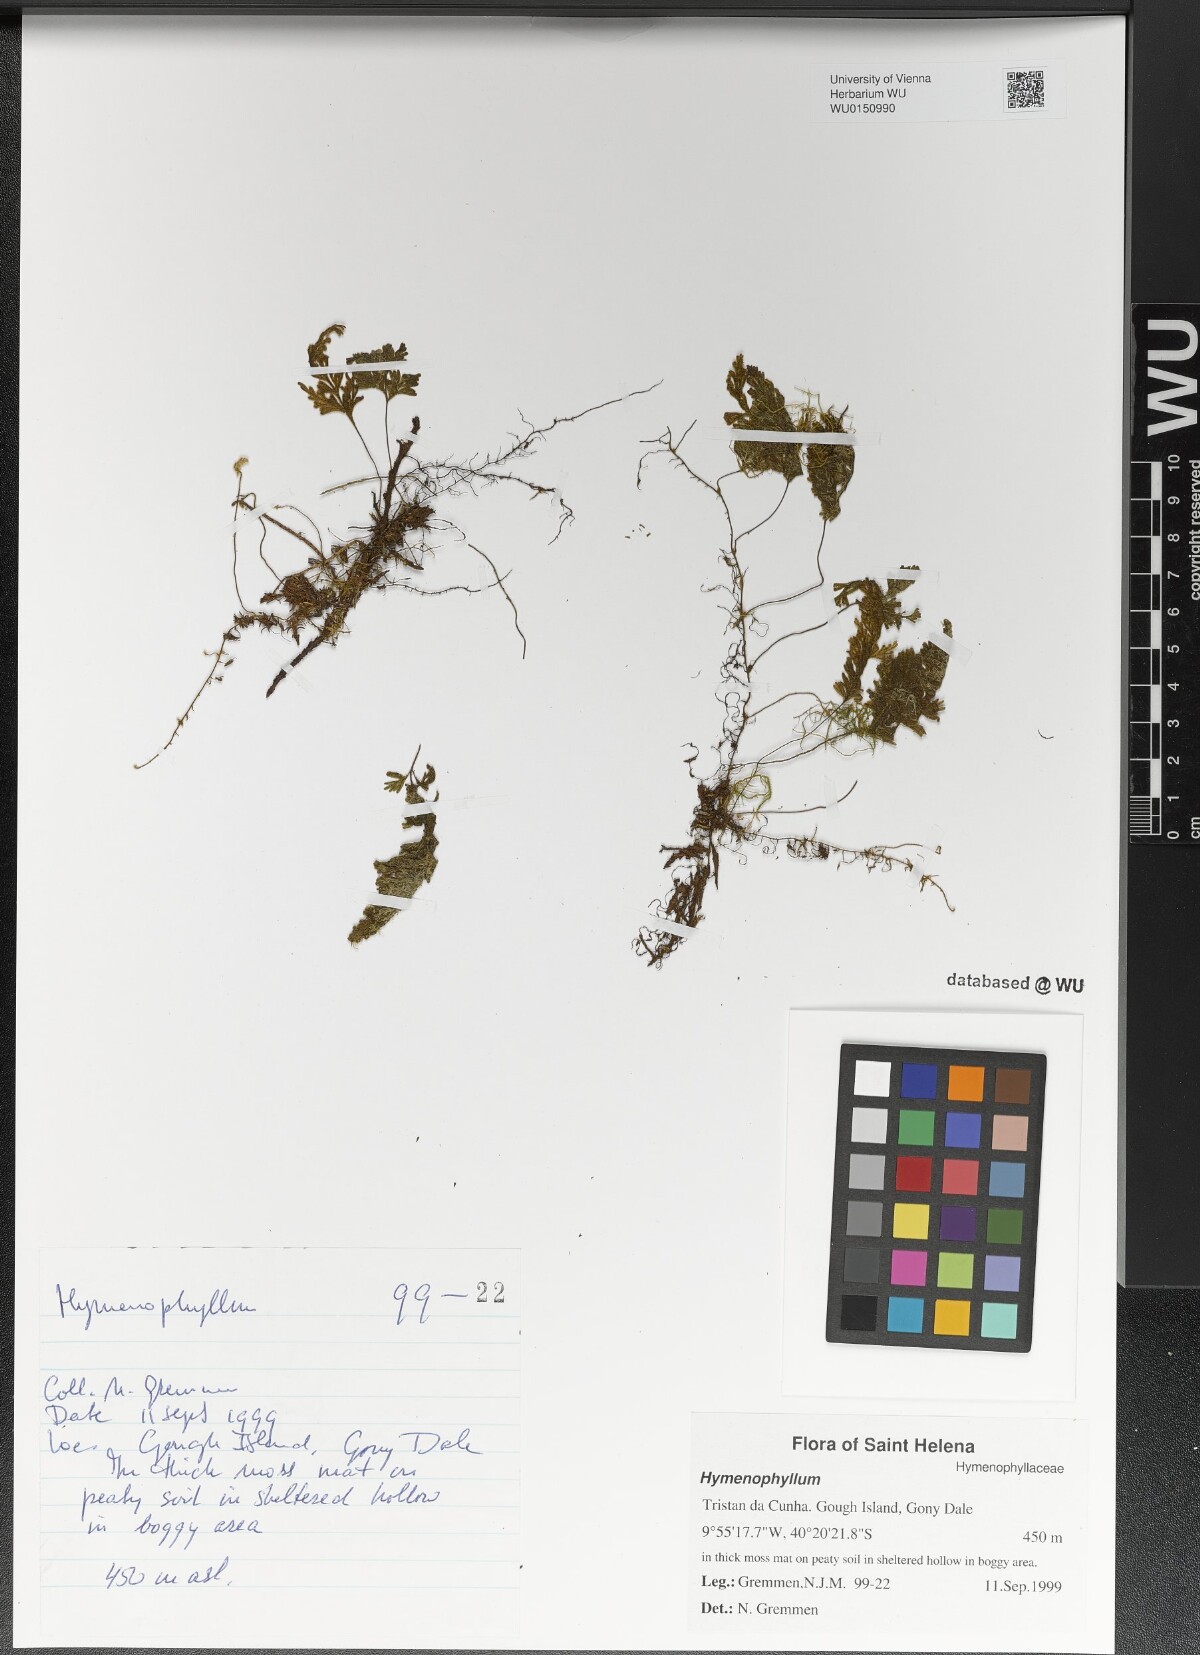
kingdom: Plantae
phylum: Tracheophyta
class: Polypodiopsida
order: Hymenophyllales
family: Hymenophyllaceae
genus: Hymenophyllum
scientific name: Hymenophyllum
